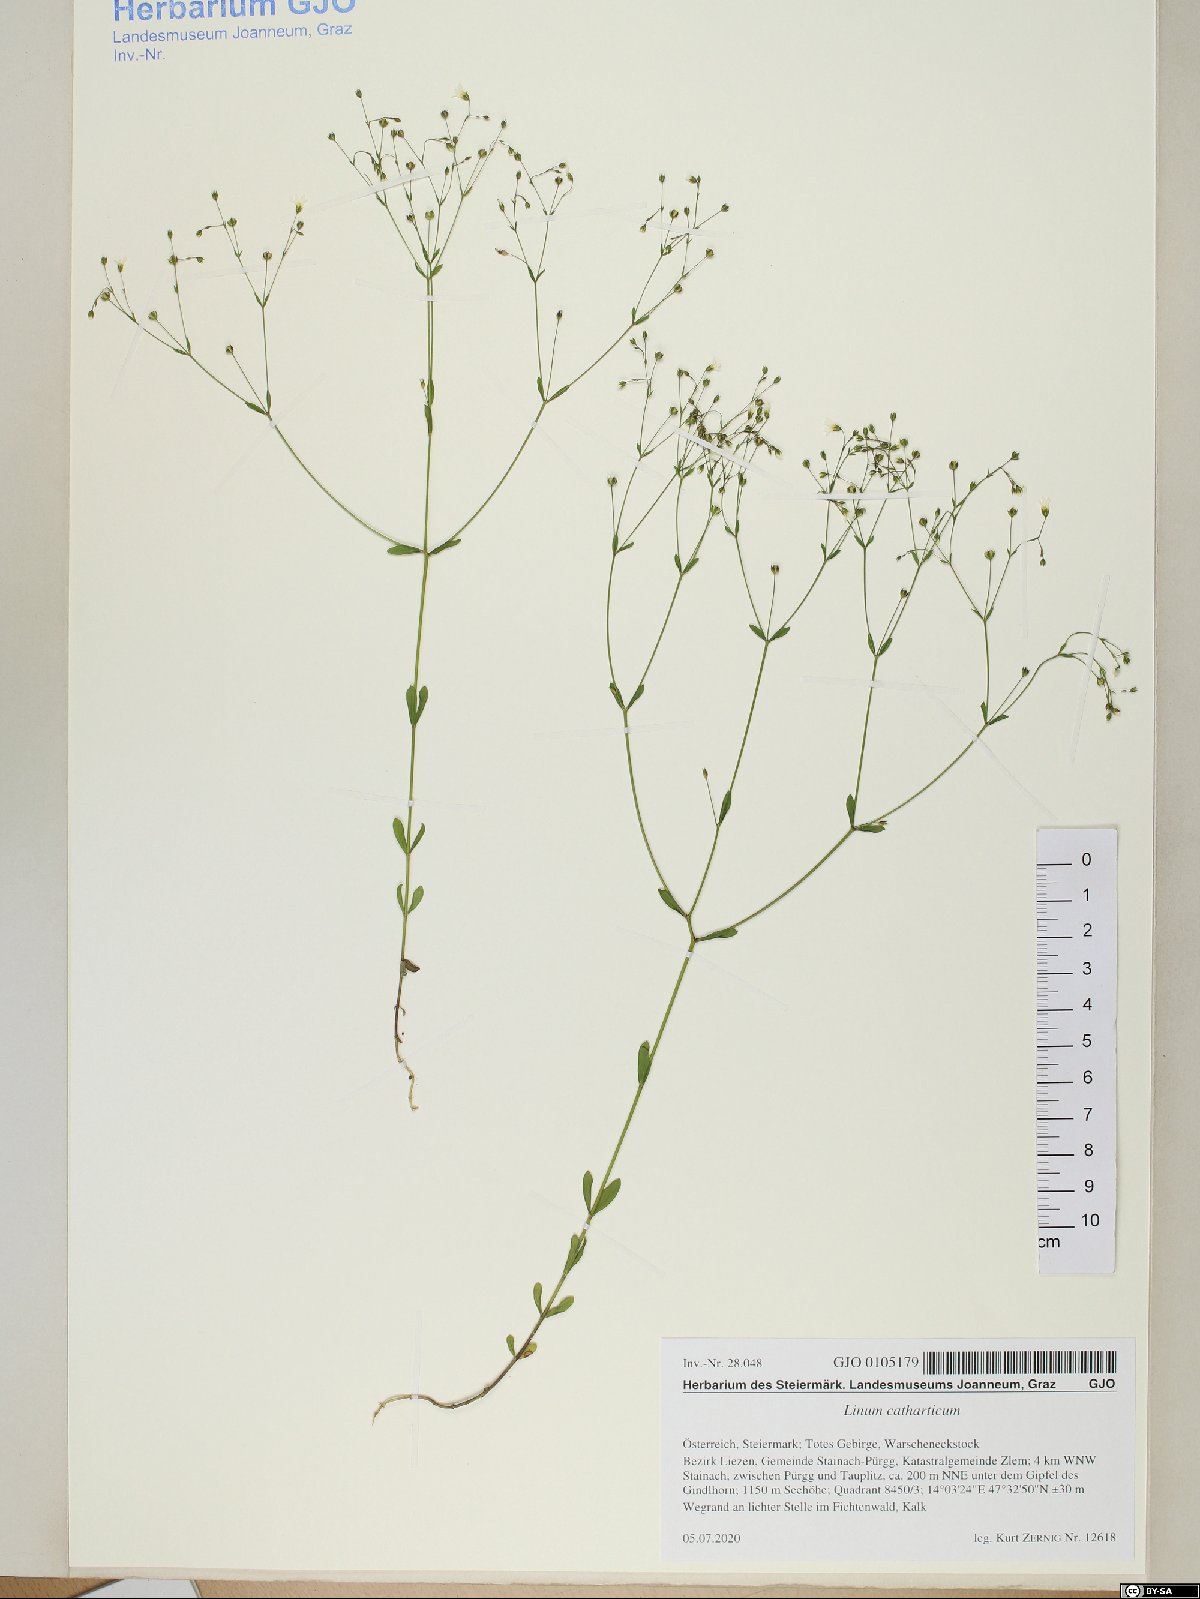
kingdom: Plantae
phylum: Tracheophyta
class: Magnoliopsida
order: Malpighiales
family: Linaceae
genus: Linum
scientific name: Linum catharticum
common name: Fairy flax
